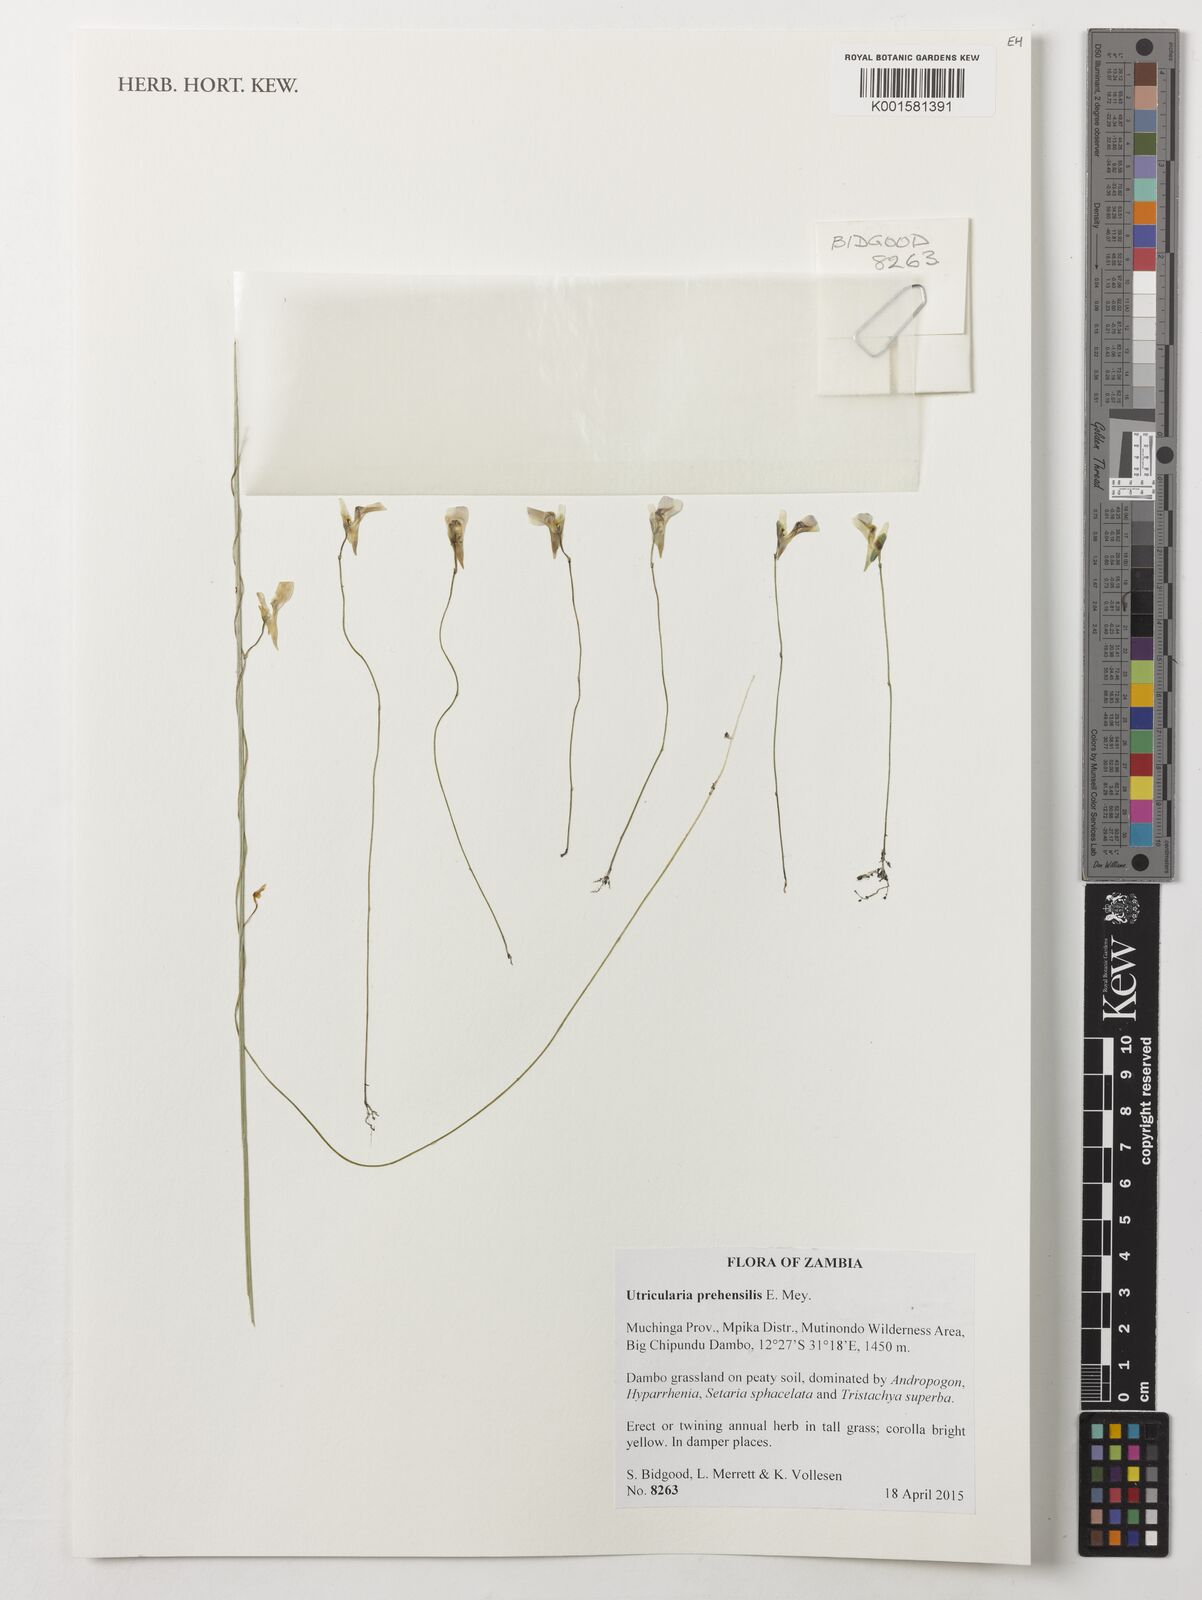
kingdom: Plantae
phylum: Tracheophyta
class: Magnoliopsida
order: Lamiales
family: Lentibulariaceae
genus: Utricularia
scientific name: Utricularia prehensilis
